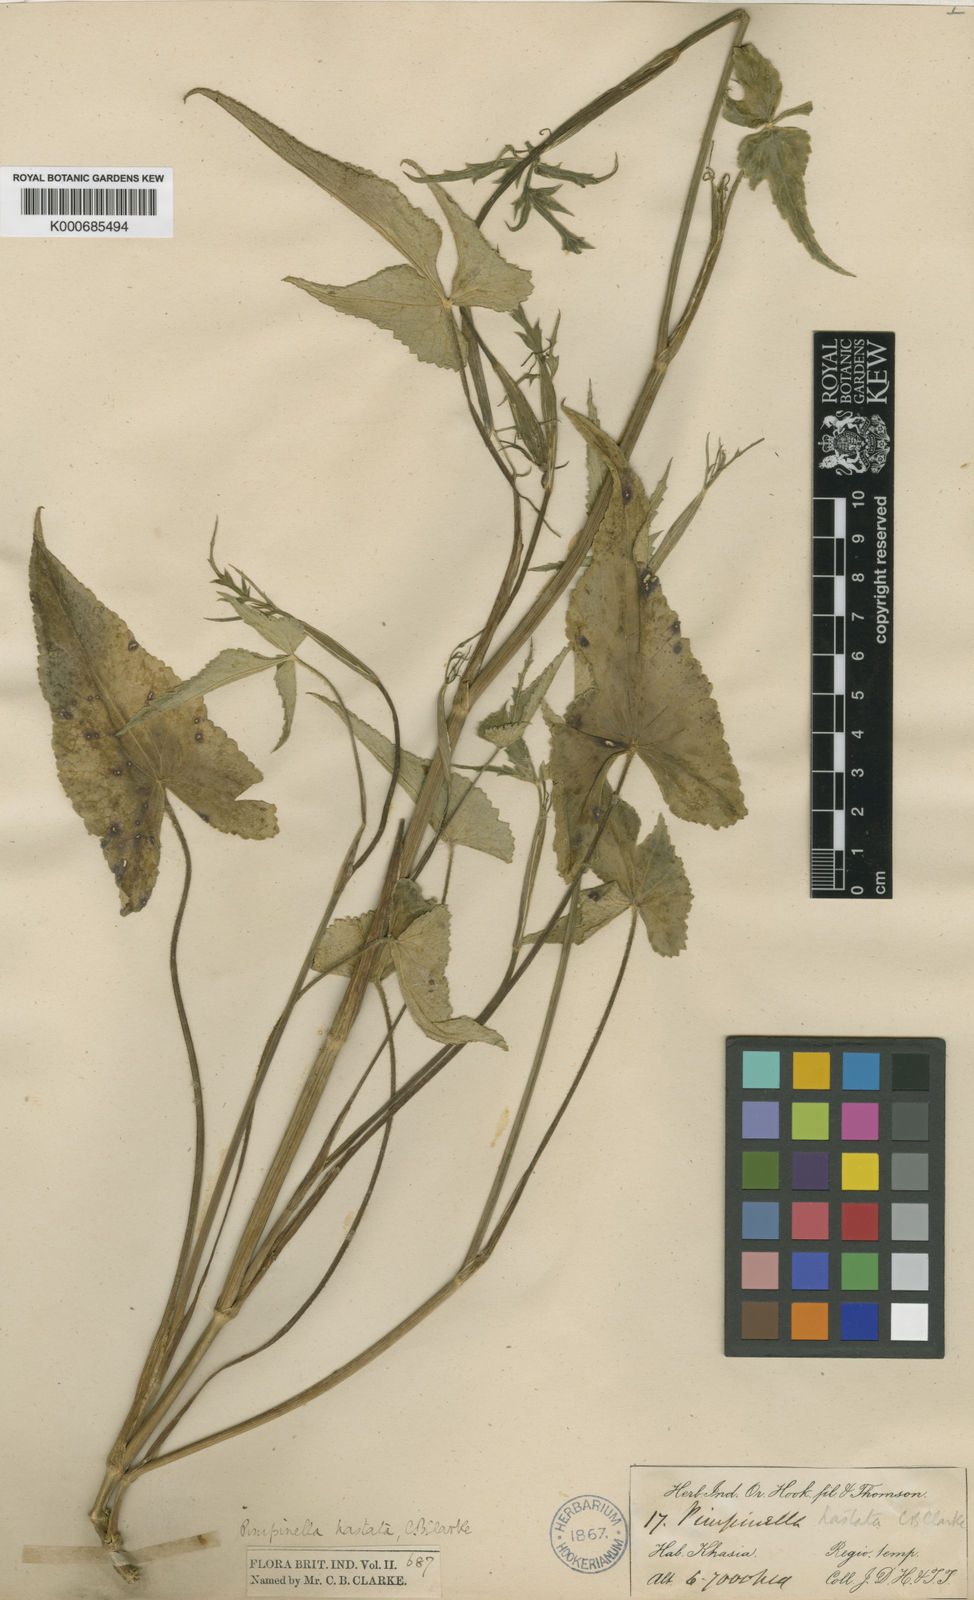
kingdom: Plantae
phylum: Tracheophyta
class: Magnoliopsida
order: Apiales
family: Apiaceae
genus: Pimpinella
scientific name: Pimpinella hastata
